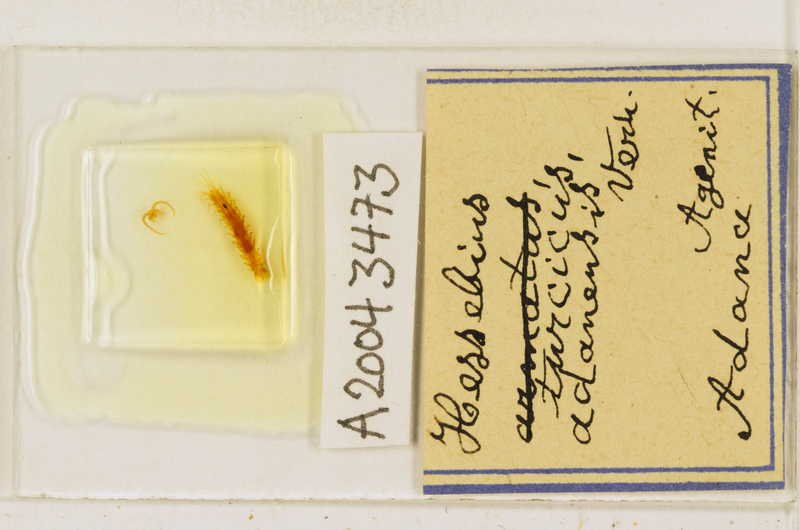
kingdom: Animalia
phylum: Arthropoda
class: Chilopoda
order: Lithobiomorpha
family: Lithobiidae
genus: Hessebius
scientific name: Hessebius
